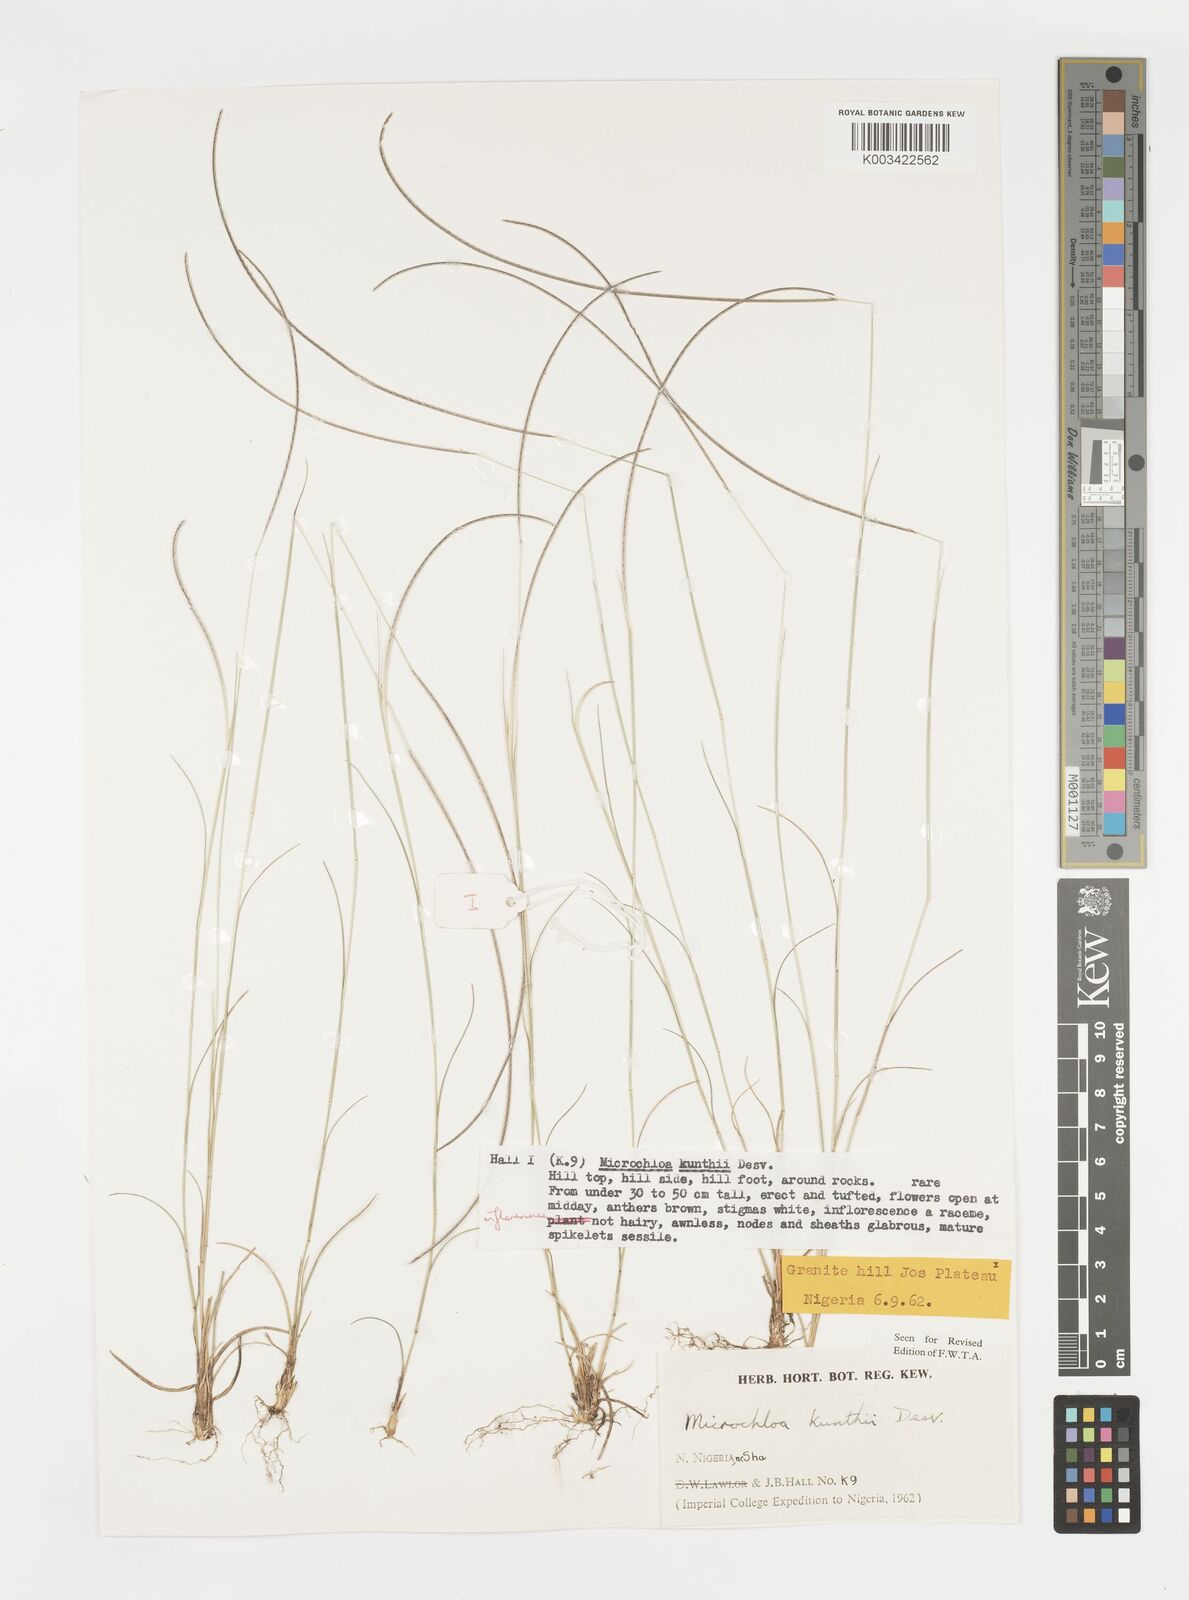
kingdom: Plantae
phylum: Tracheophyta
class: Liliopsida
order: Poales
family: Poaceae
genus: Microchloa
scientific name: Microchloa kunthii
